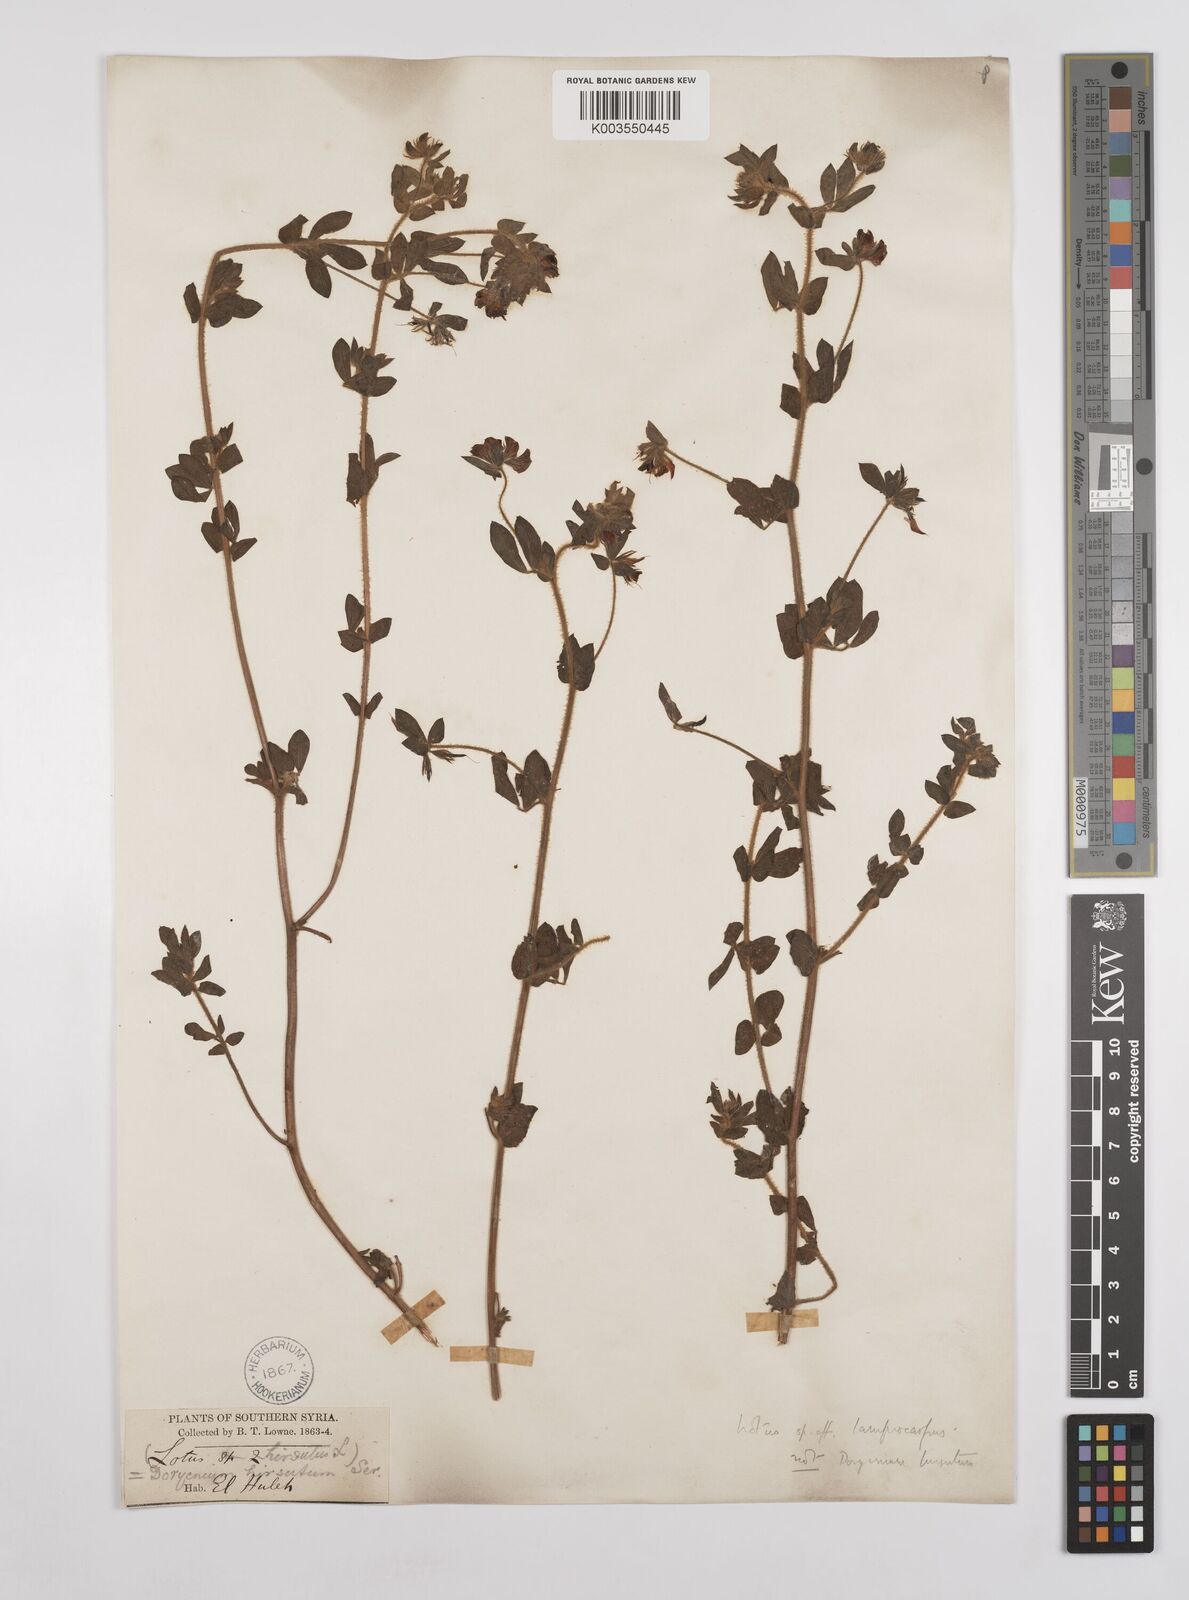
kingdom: Plantae
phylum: Tracheophyta
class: Magnoliopsida
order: Fabales
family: Fabaceae
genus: Lotus
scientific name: Lotus palustris
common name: Large birds-foot trefoil
